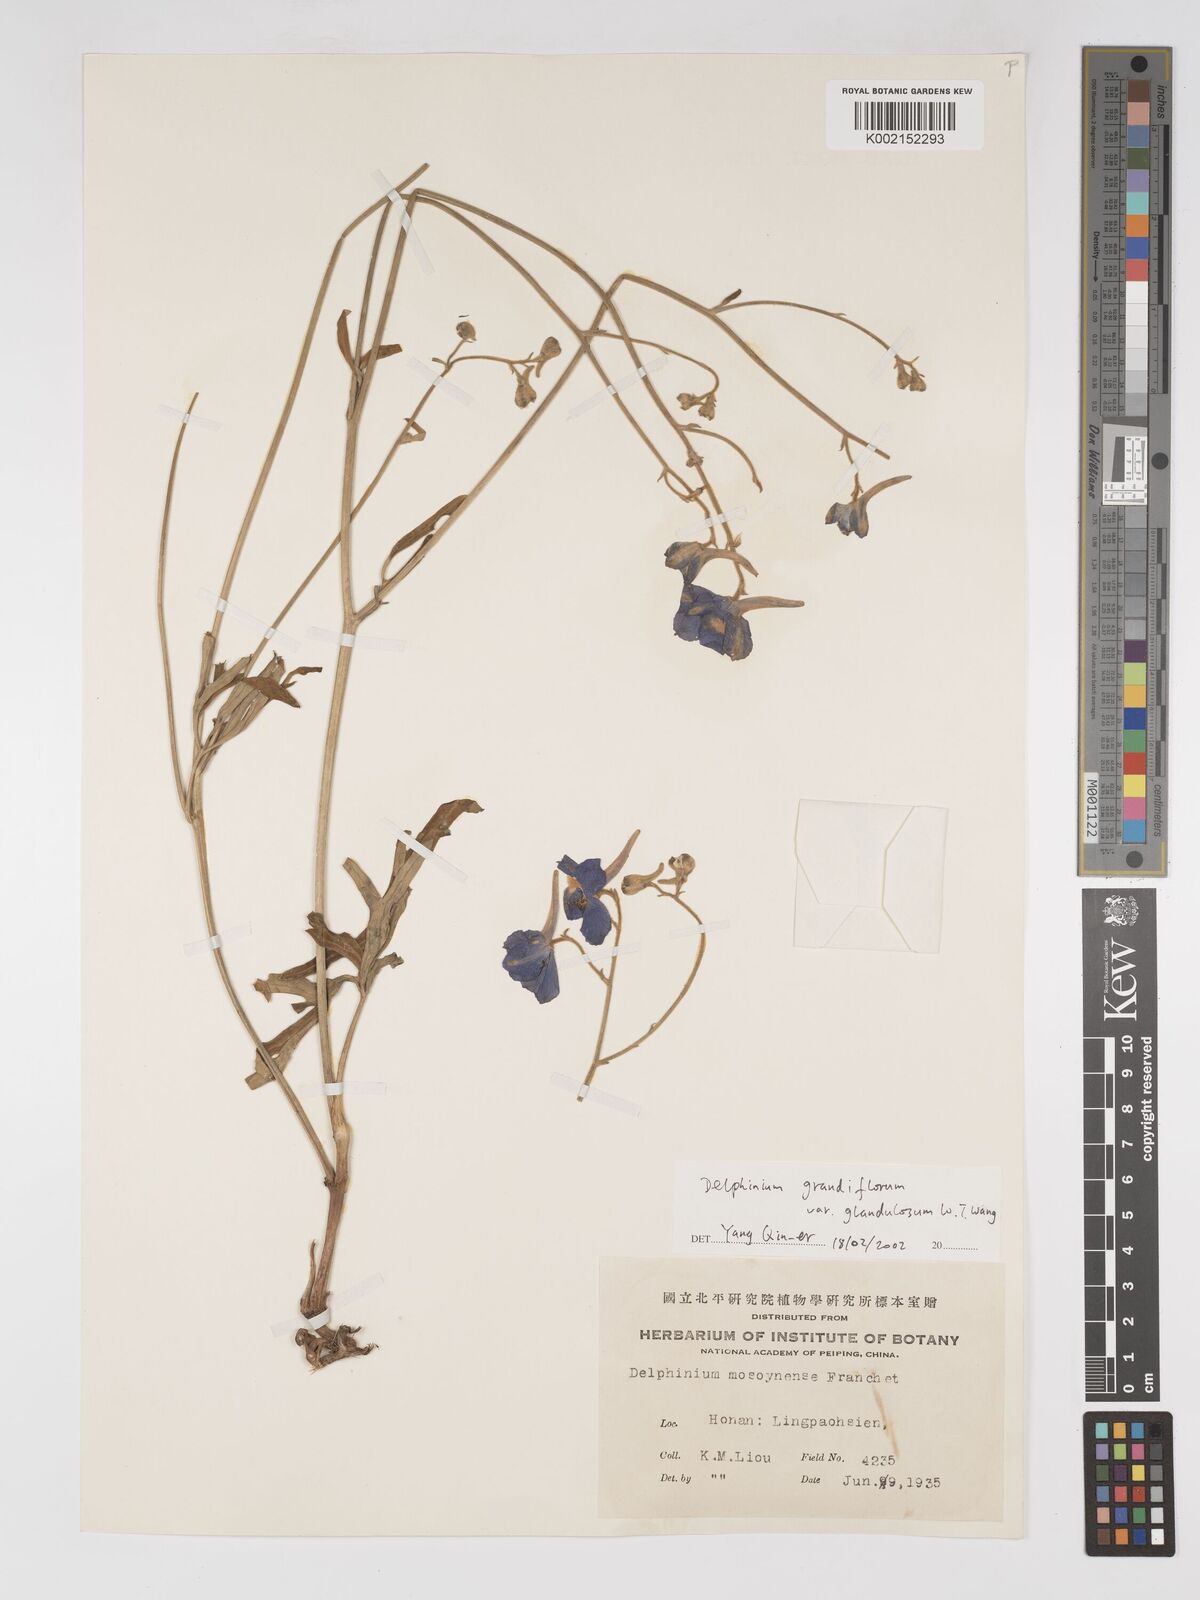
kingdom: Plantae
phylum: Tracheophyta
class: Magnoliopsida
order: Ranunculales
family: Ranunculaceae
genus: Delphinium
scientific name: Delphinium grandiflorum
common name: Siberian larkspur
